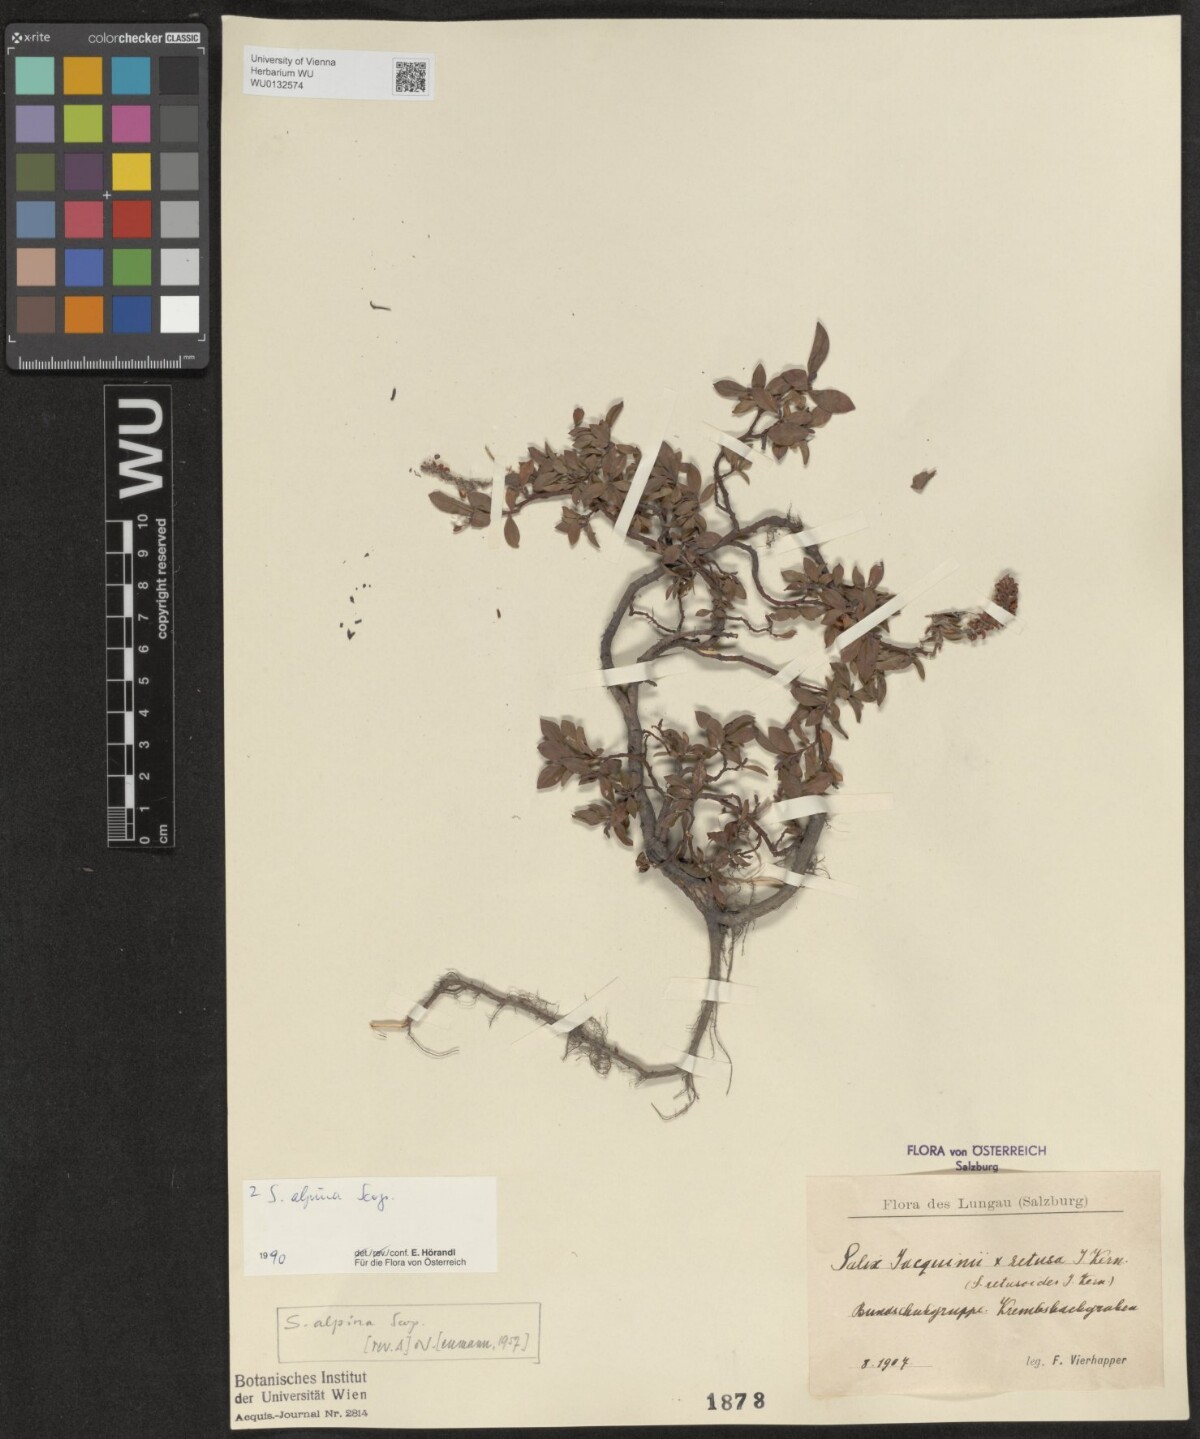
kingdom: Plantae
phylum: Tracheophyta
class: Magnoliopsida
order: Malpighiales
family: Salicaceae
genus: Salix
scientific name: Salix alpina
